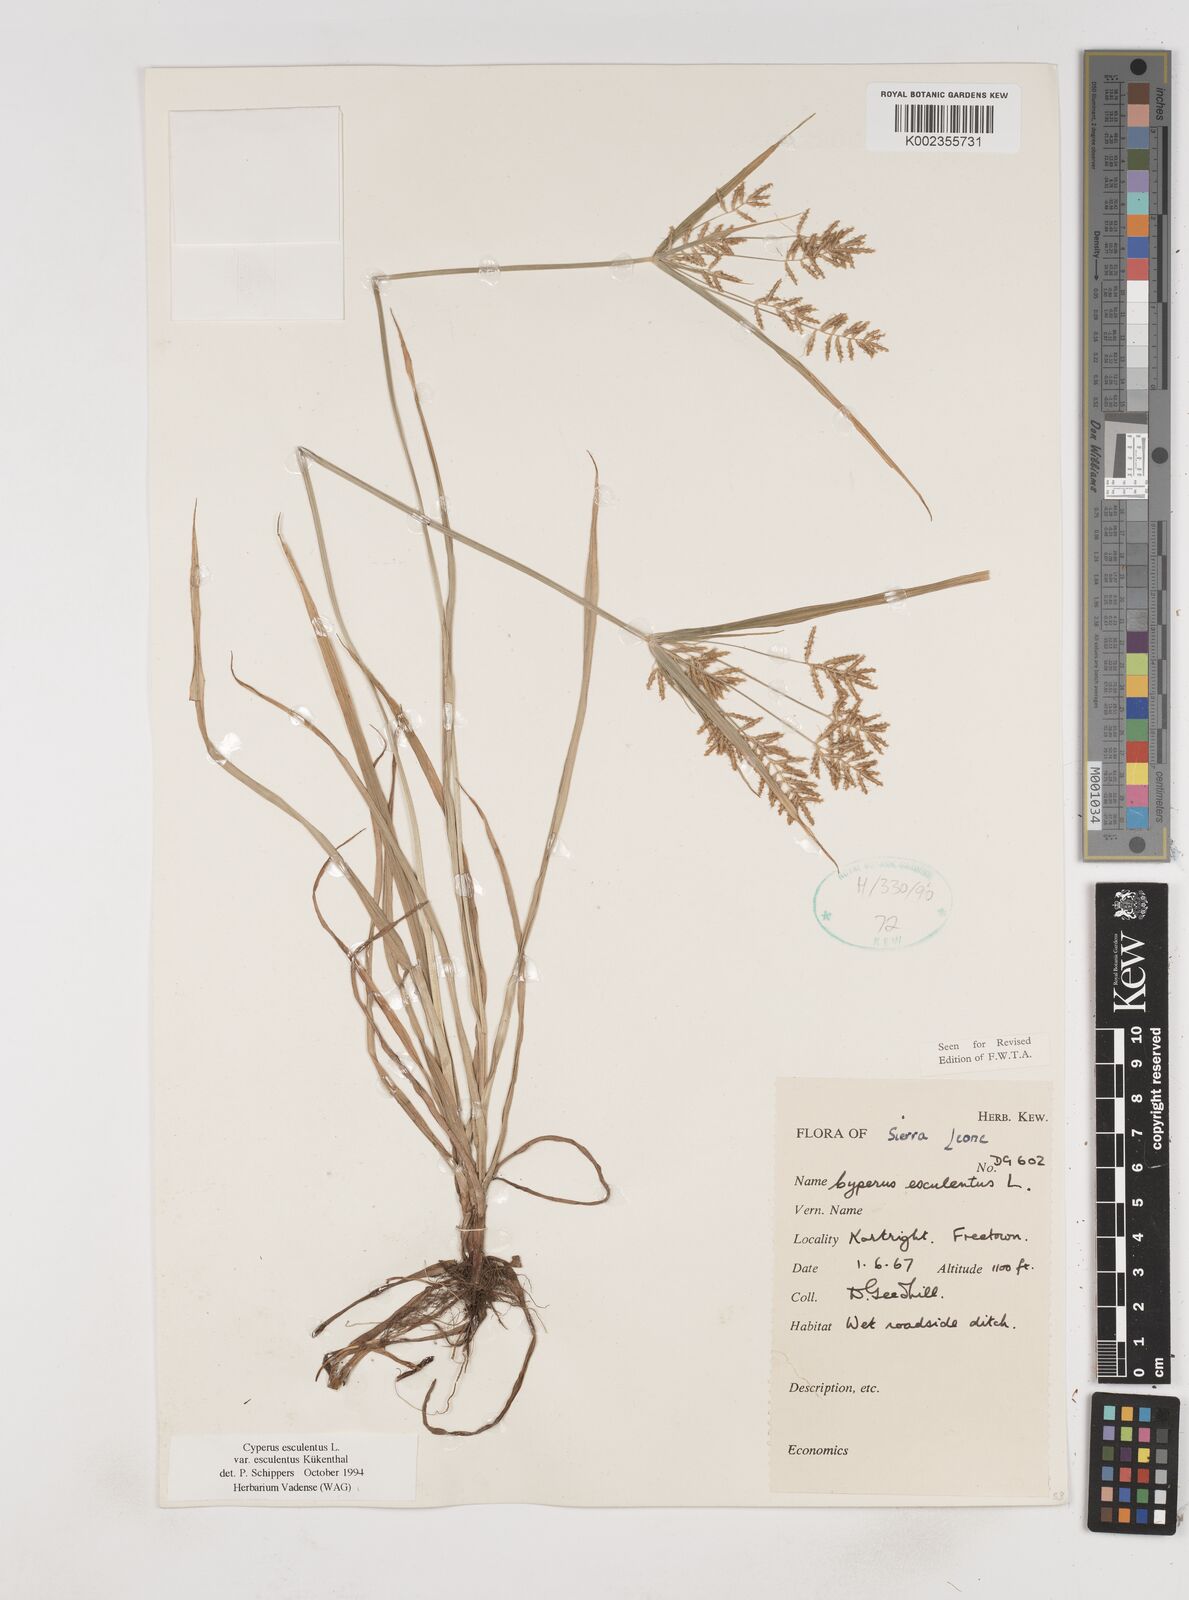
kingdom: Plantae
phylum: Tracheophyta
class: Liliopsida
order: Poales
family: Cyperaceae
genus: Cyperus
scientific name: Cyperus esculentus
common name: Yellow nutsedge
